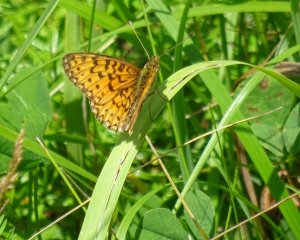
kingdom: Animalia
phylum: Arthropoda
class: Insecta
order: Lepidoptera
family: Nymphalidae
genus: Boloria
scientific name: Boloria selene
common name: Silver-bordered Fritillary
